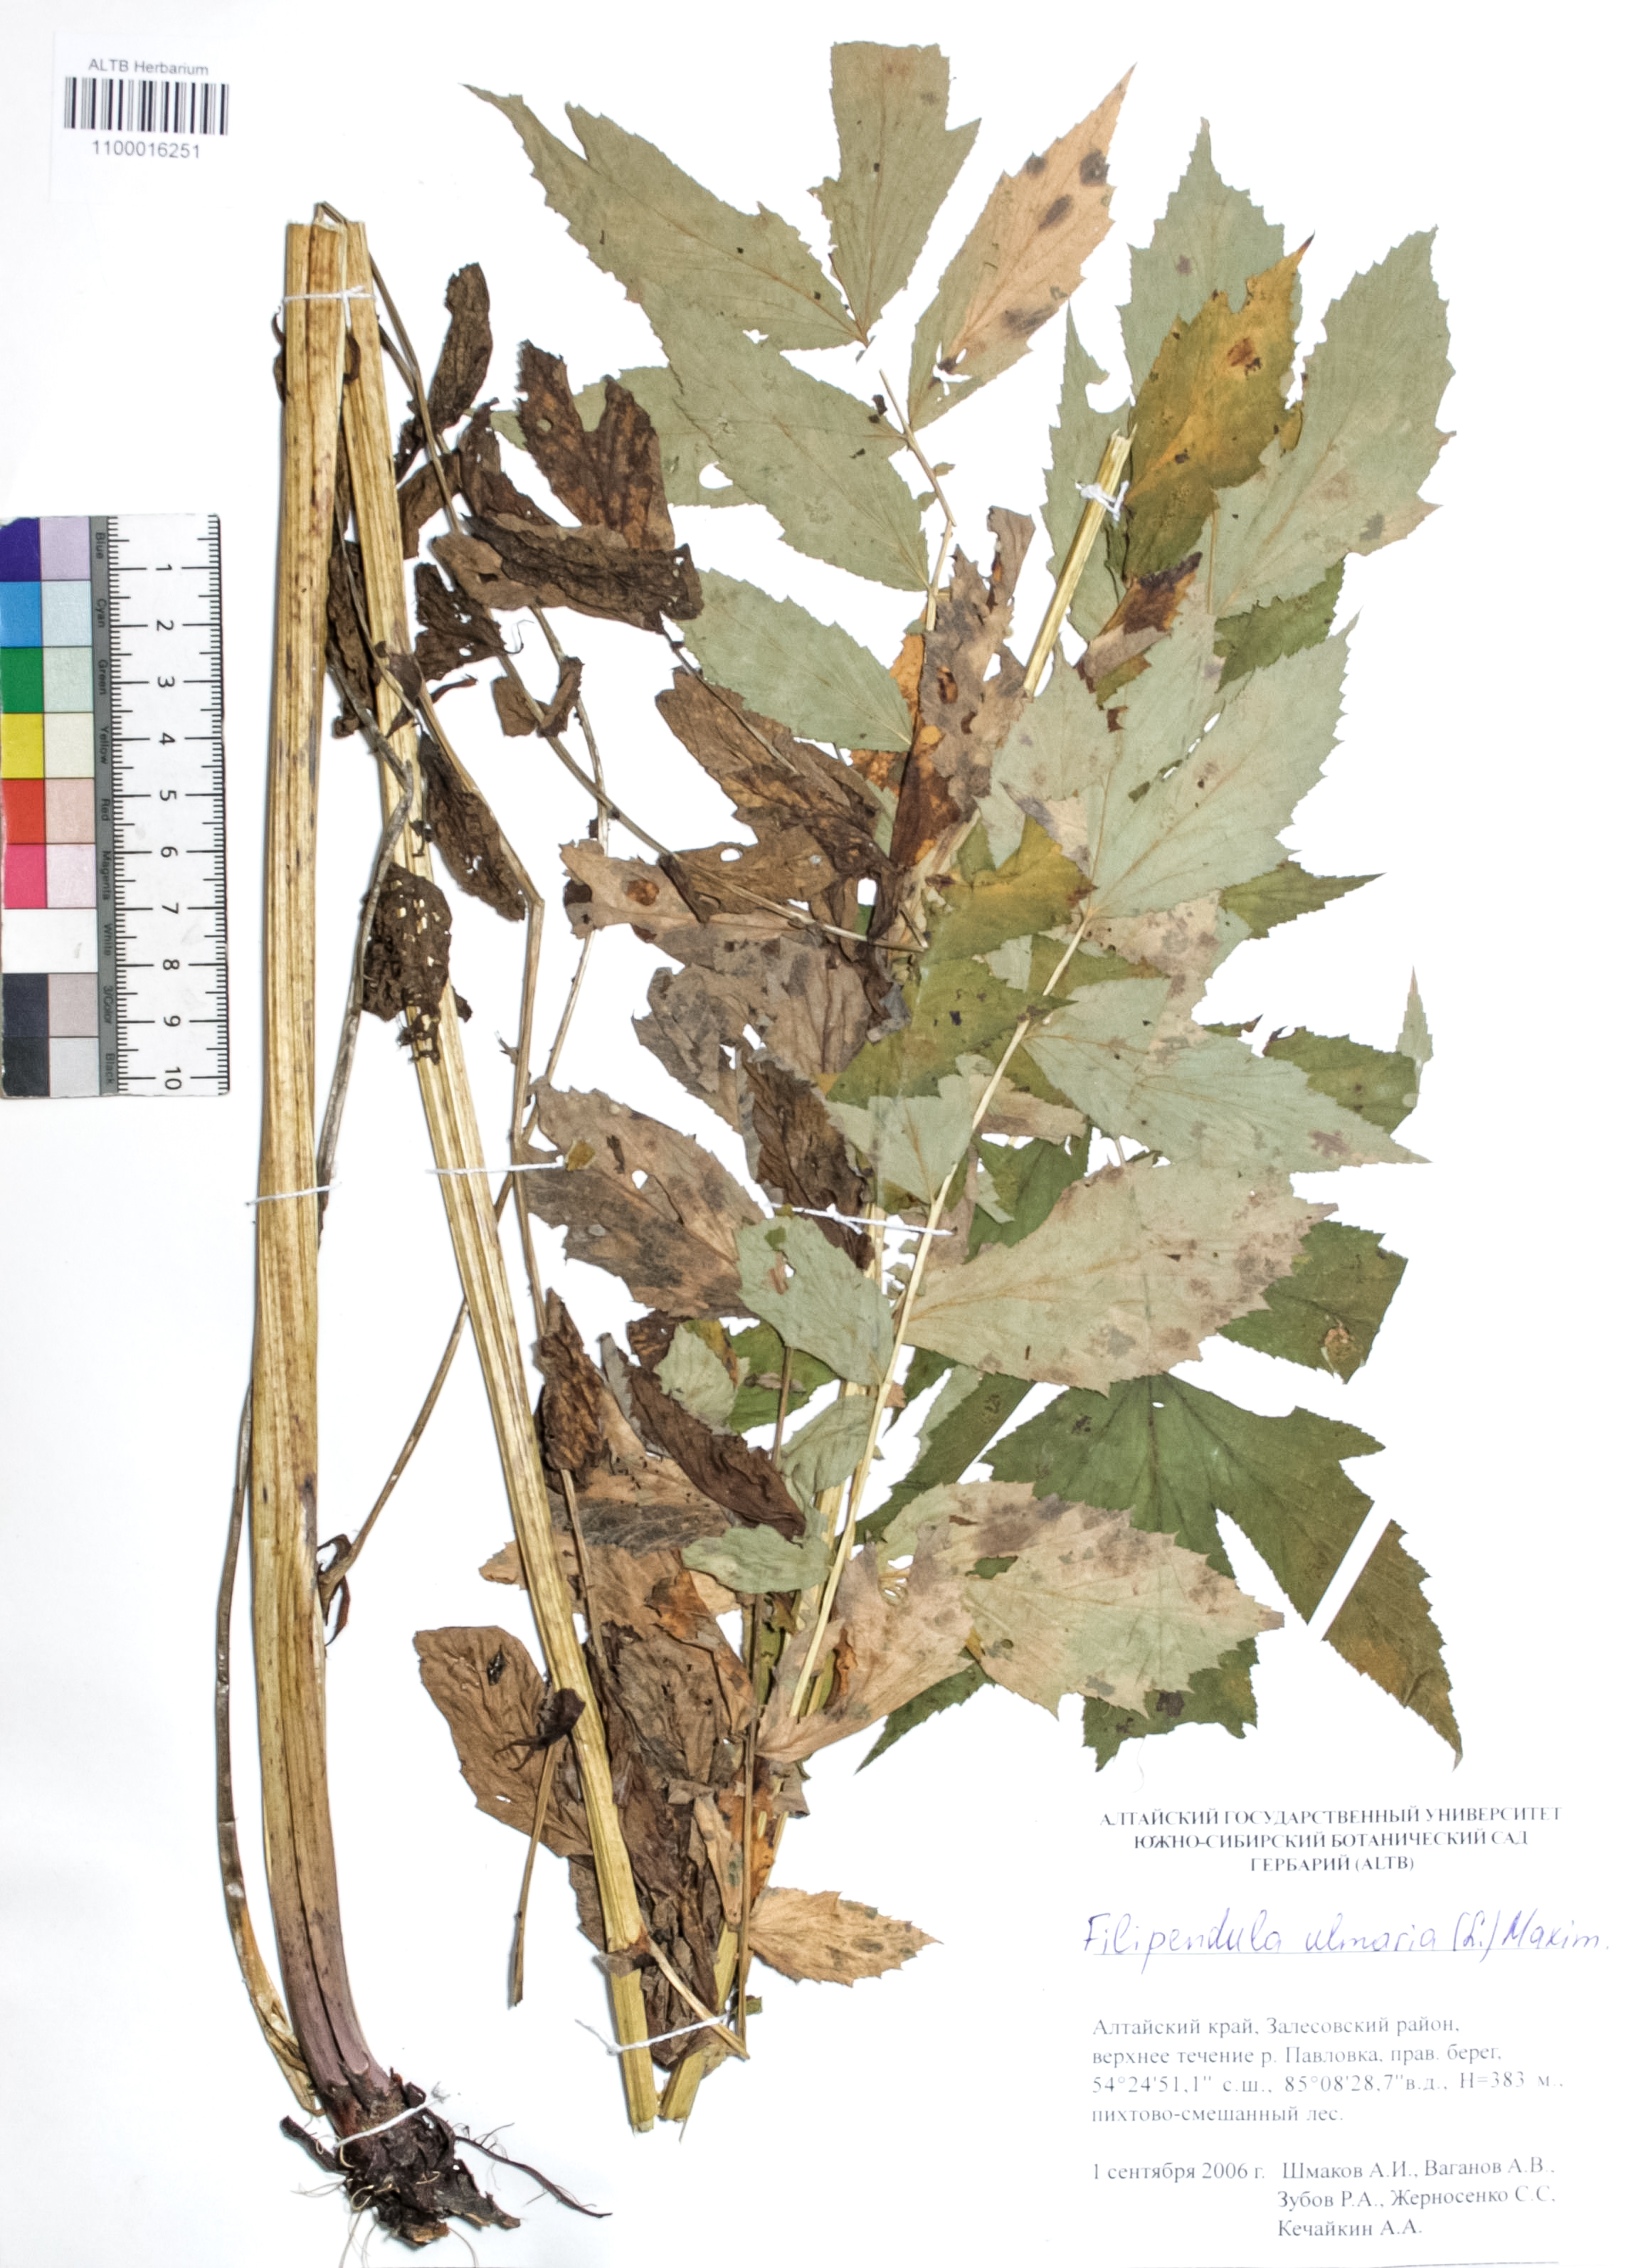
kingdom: Plantae
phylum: Tracheophyta
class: Magnoliopsida
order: Rosales
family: Rosaceae
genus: Filipendula
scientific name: Filipendula ulmaria
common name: Meadowsweet
